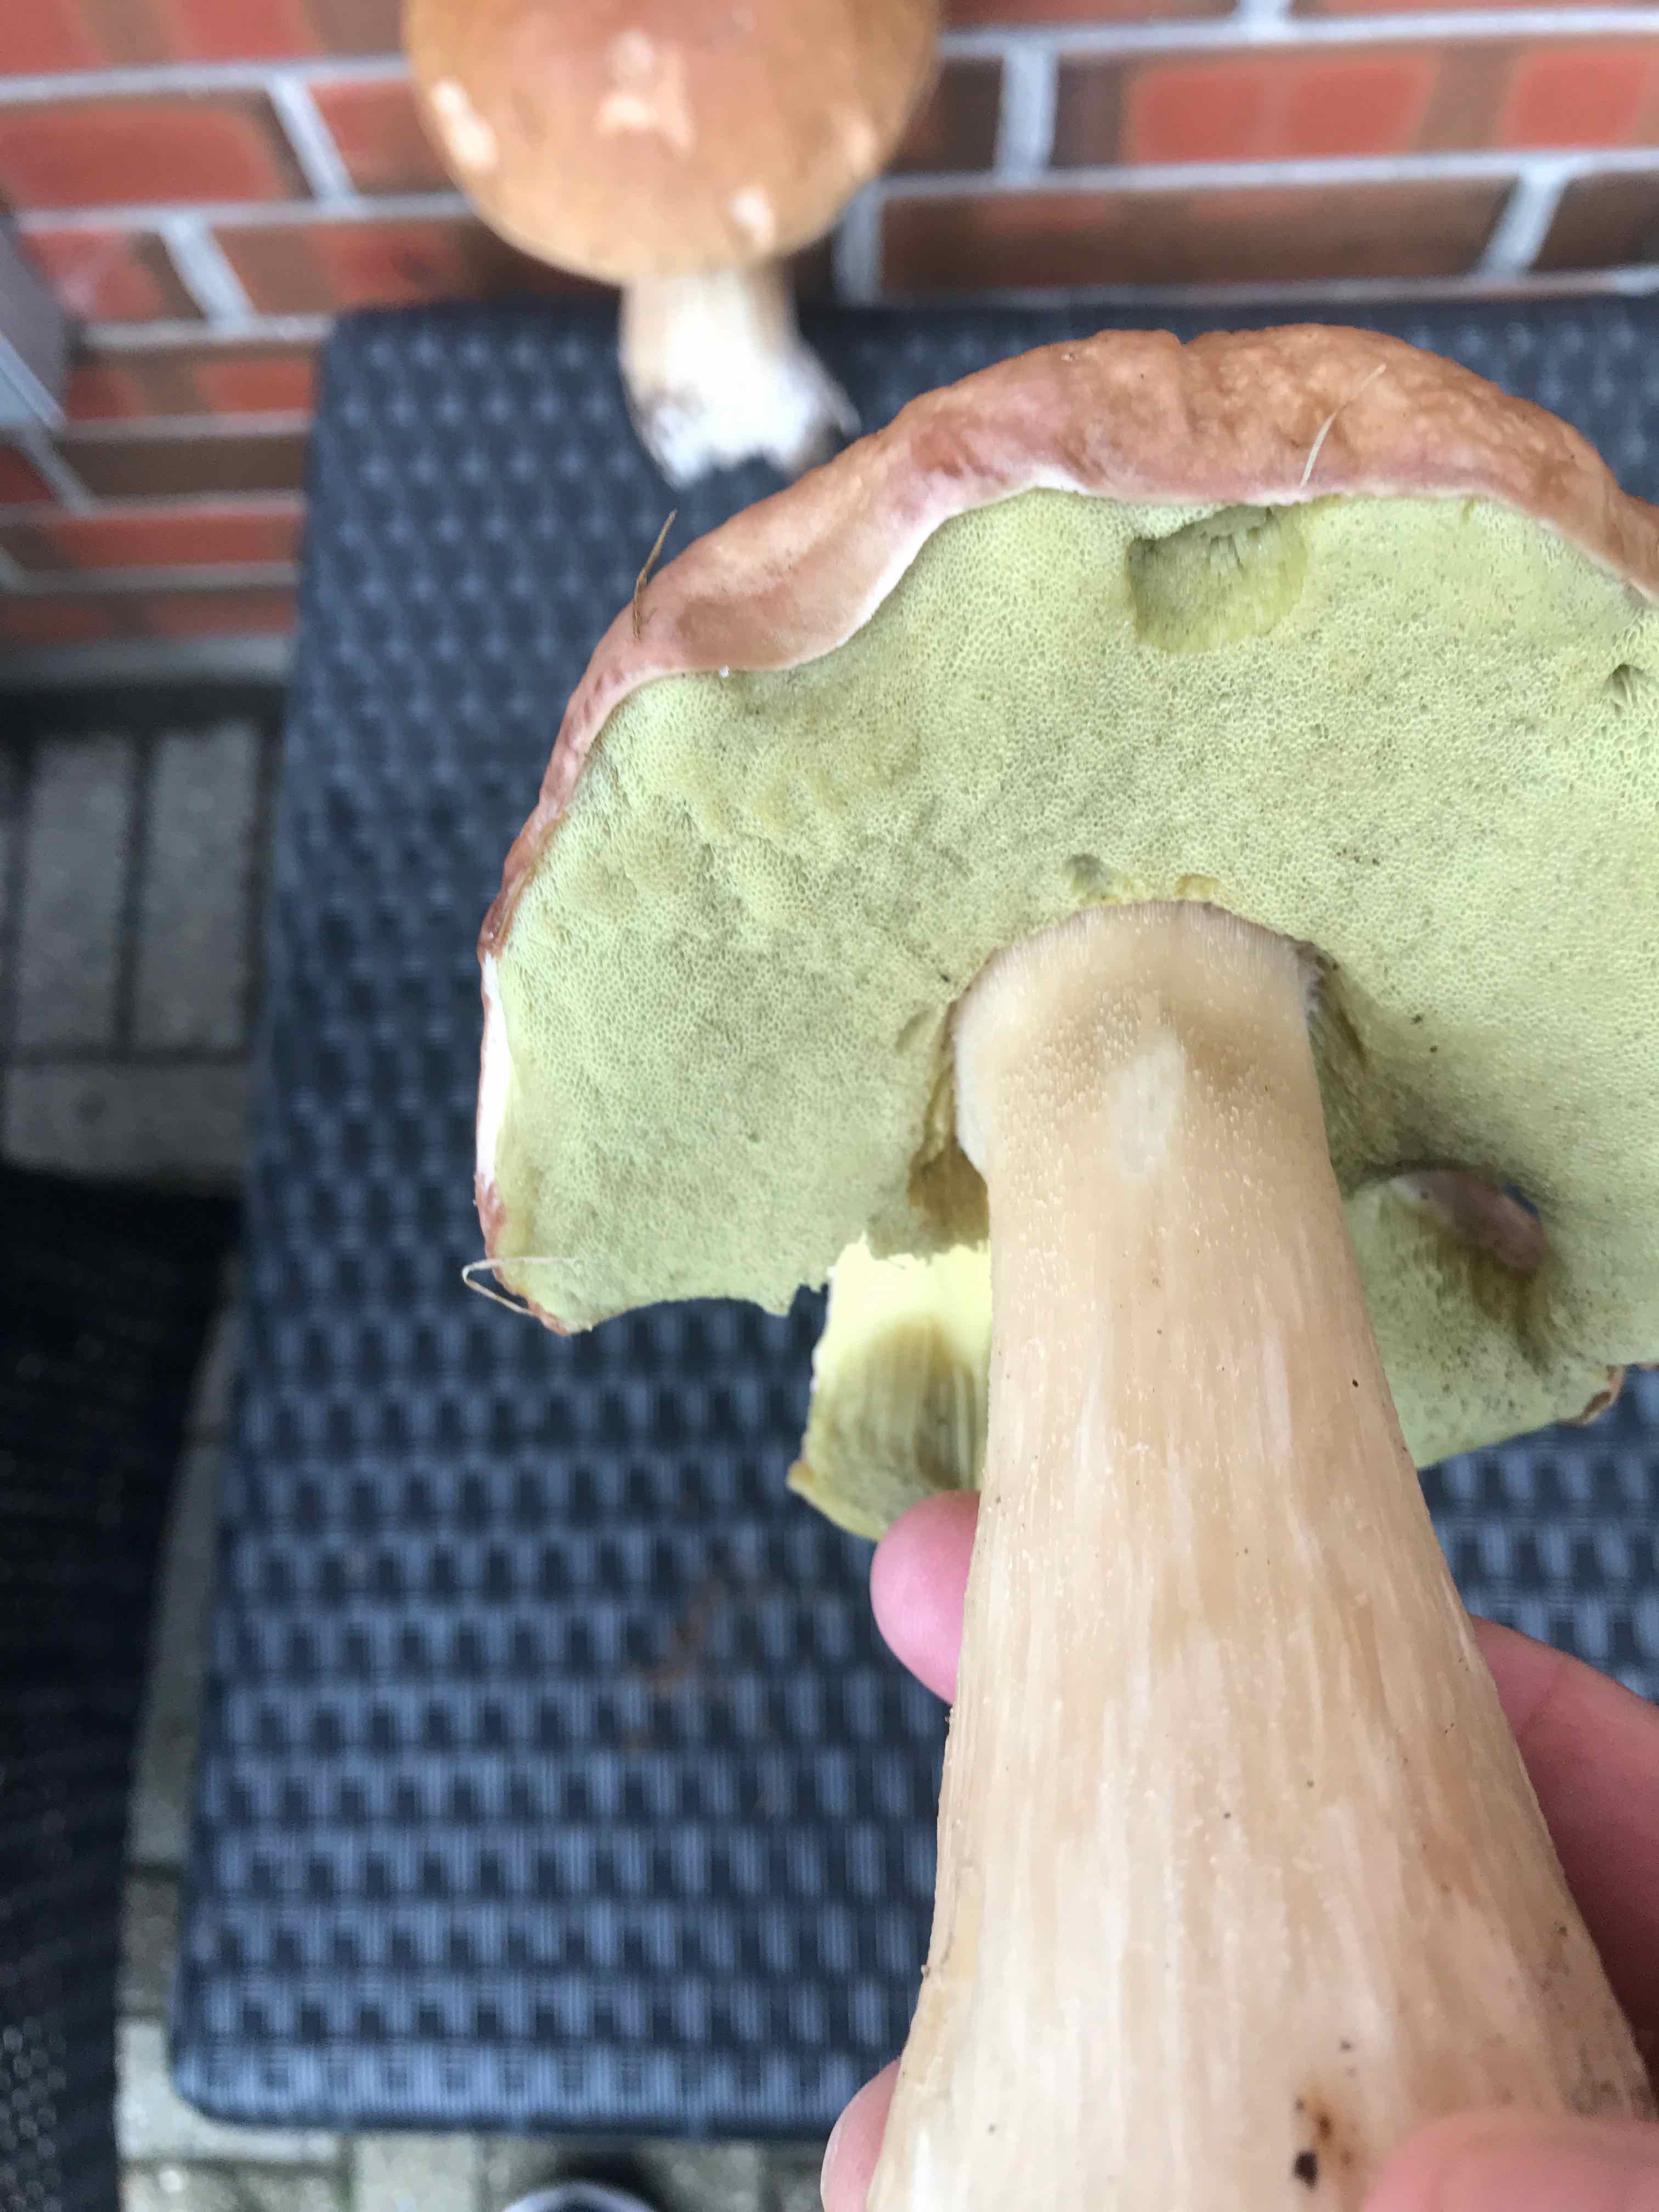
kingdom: Fungi
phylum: Basidiomycota
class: Agaricomycetes
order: Boletales
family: Boletaceae
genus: Boletus
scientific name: Boletus edulis
